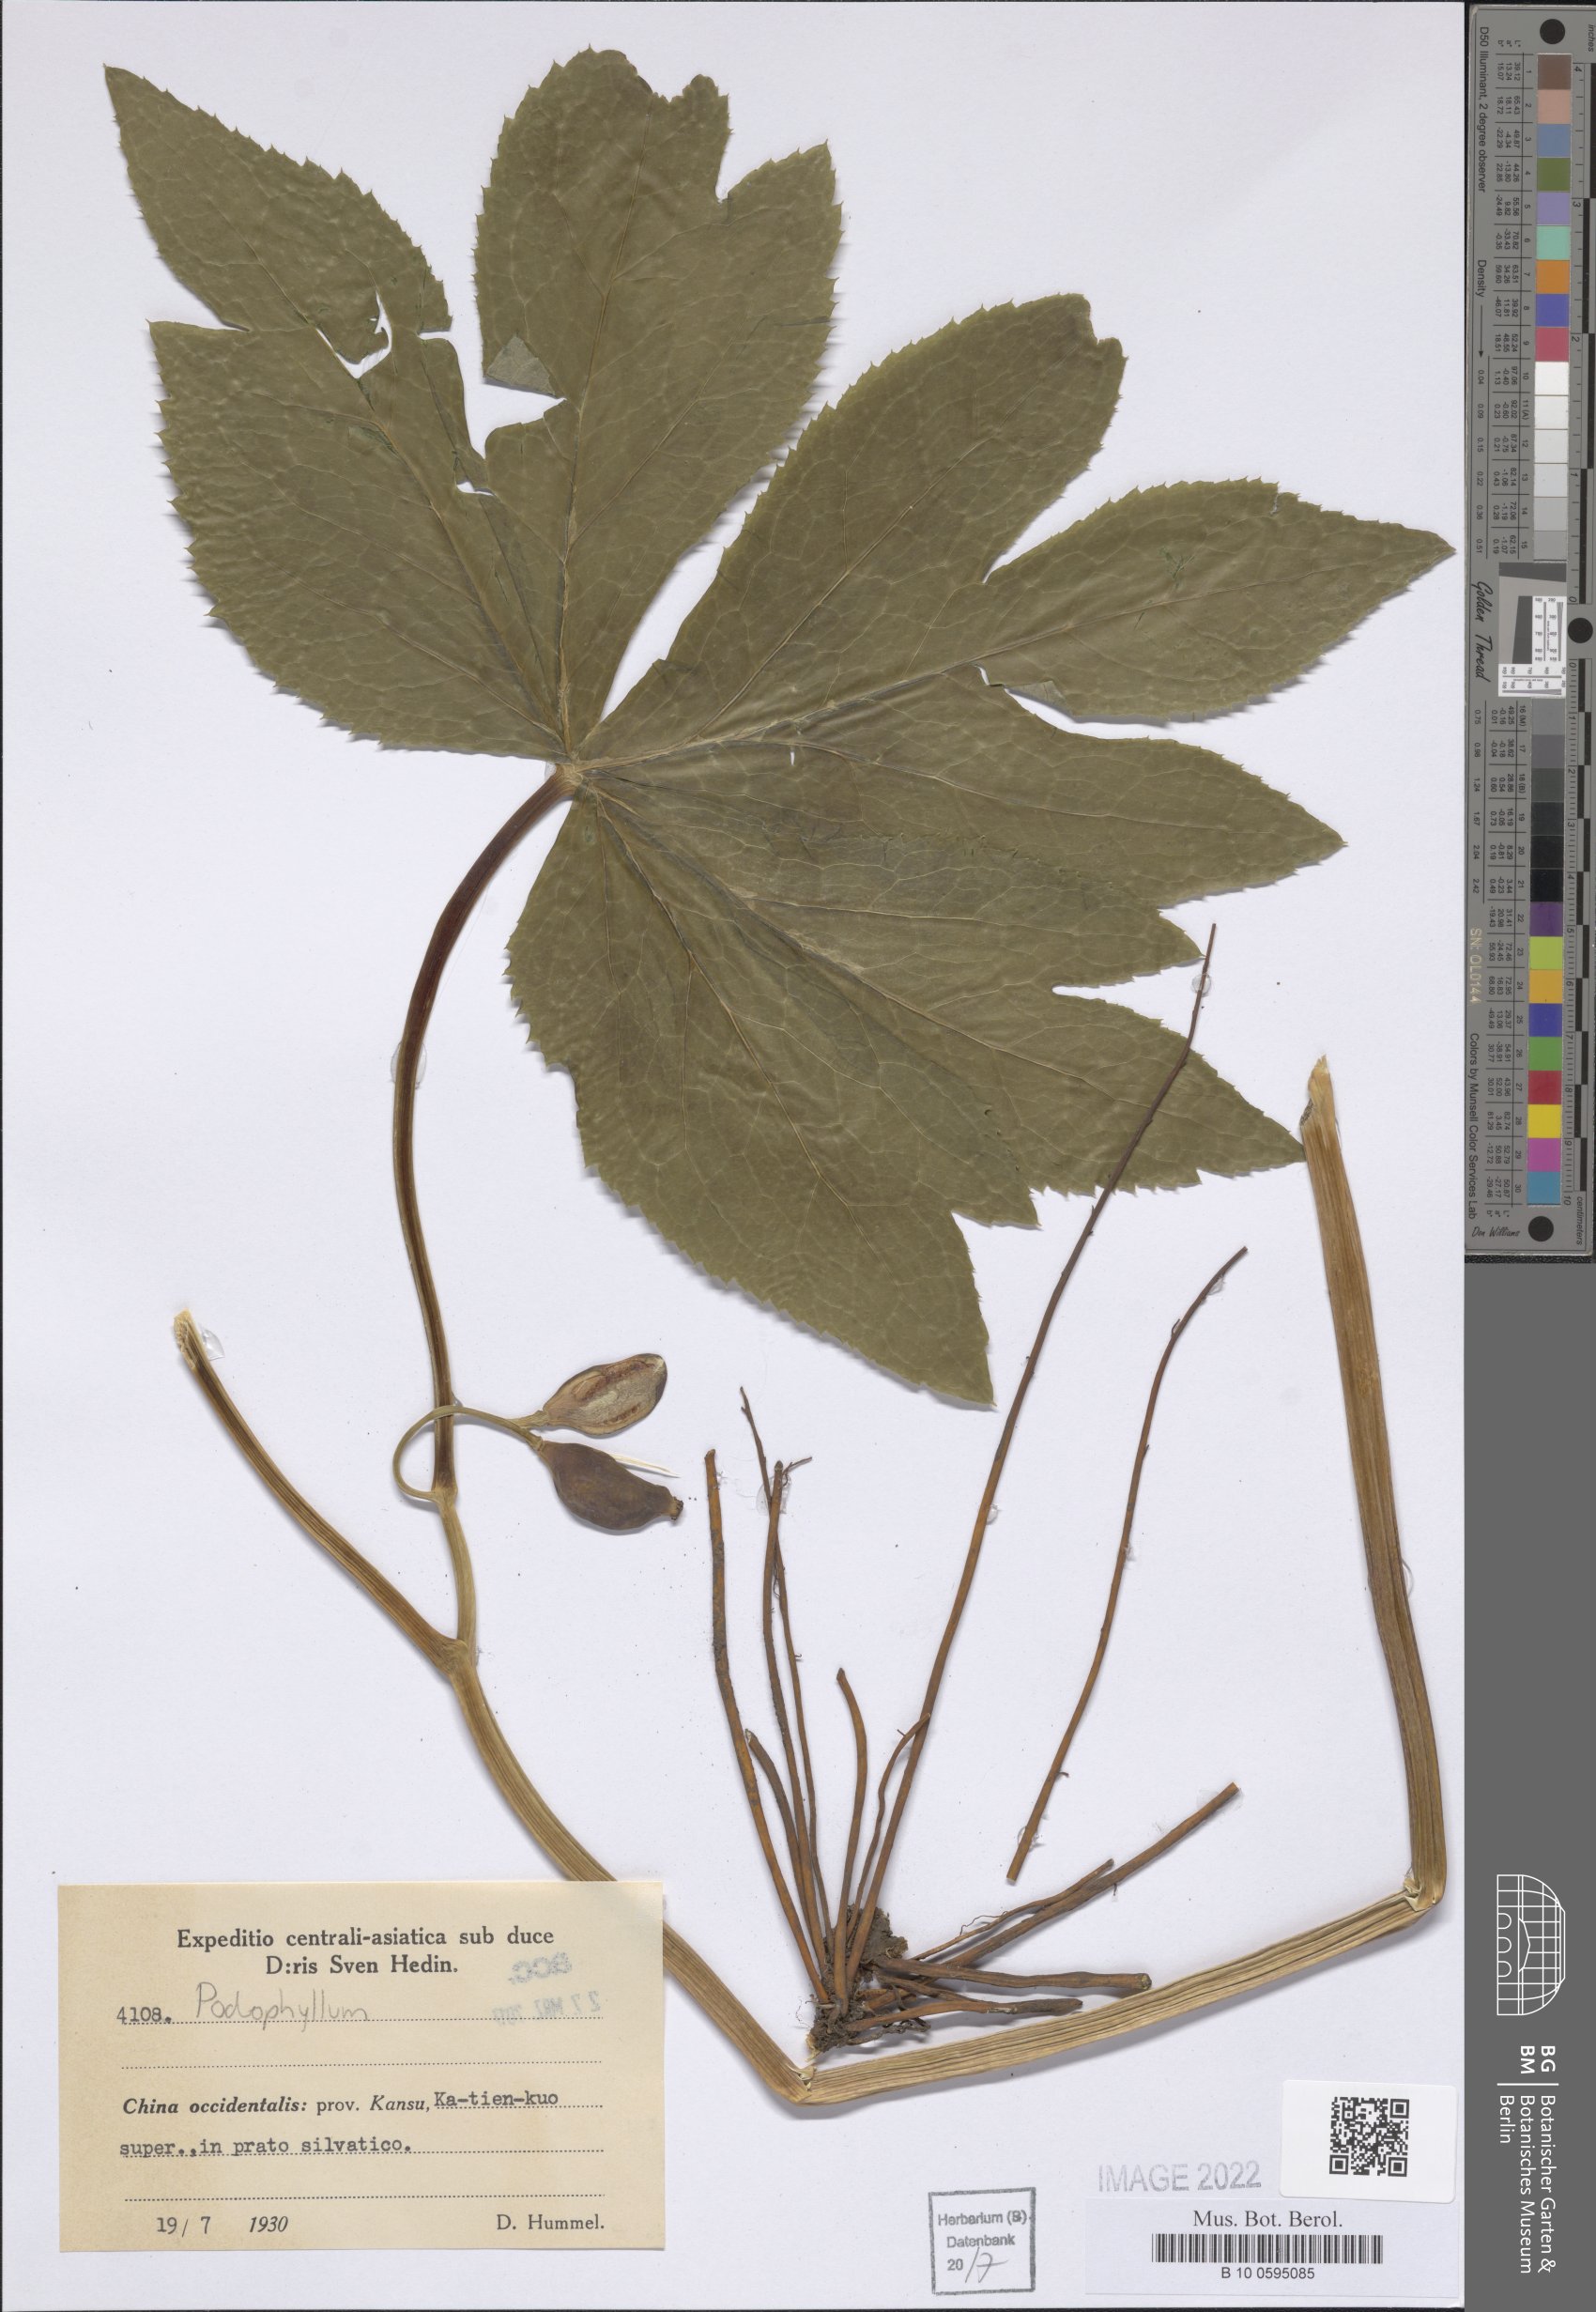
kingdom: Plantae
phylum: Tracheophyta
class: Magnoliopsida
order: Ranunculales
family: Berberidaceae
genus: Podophyllum
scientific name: Podophyllum
